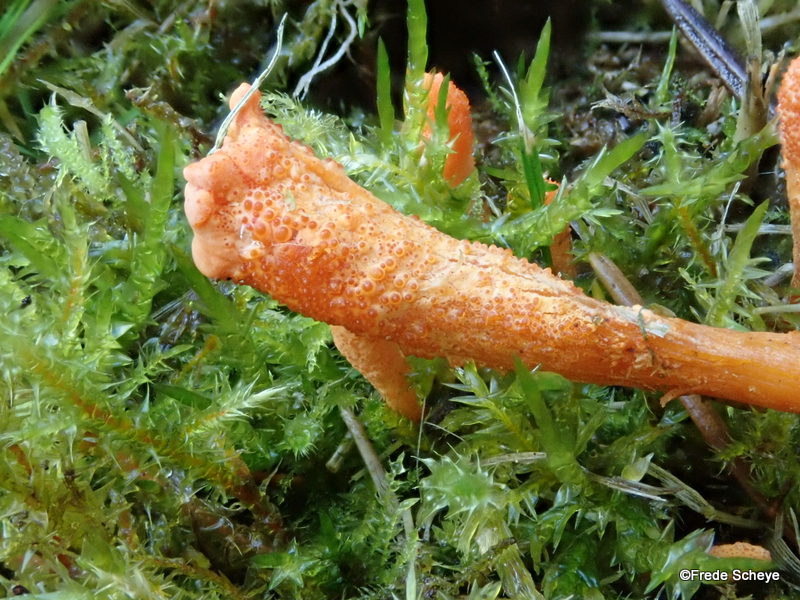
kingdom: Fungi
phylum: Ascomycota
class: Sordariomycetes
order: Hypocreales
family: Cordycipitaceae
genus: Cordyceps
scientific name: Cordyceps militaris
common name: puppe-snyltekølle
